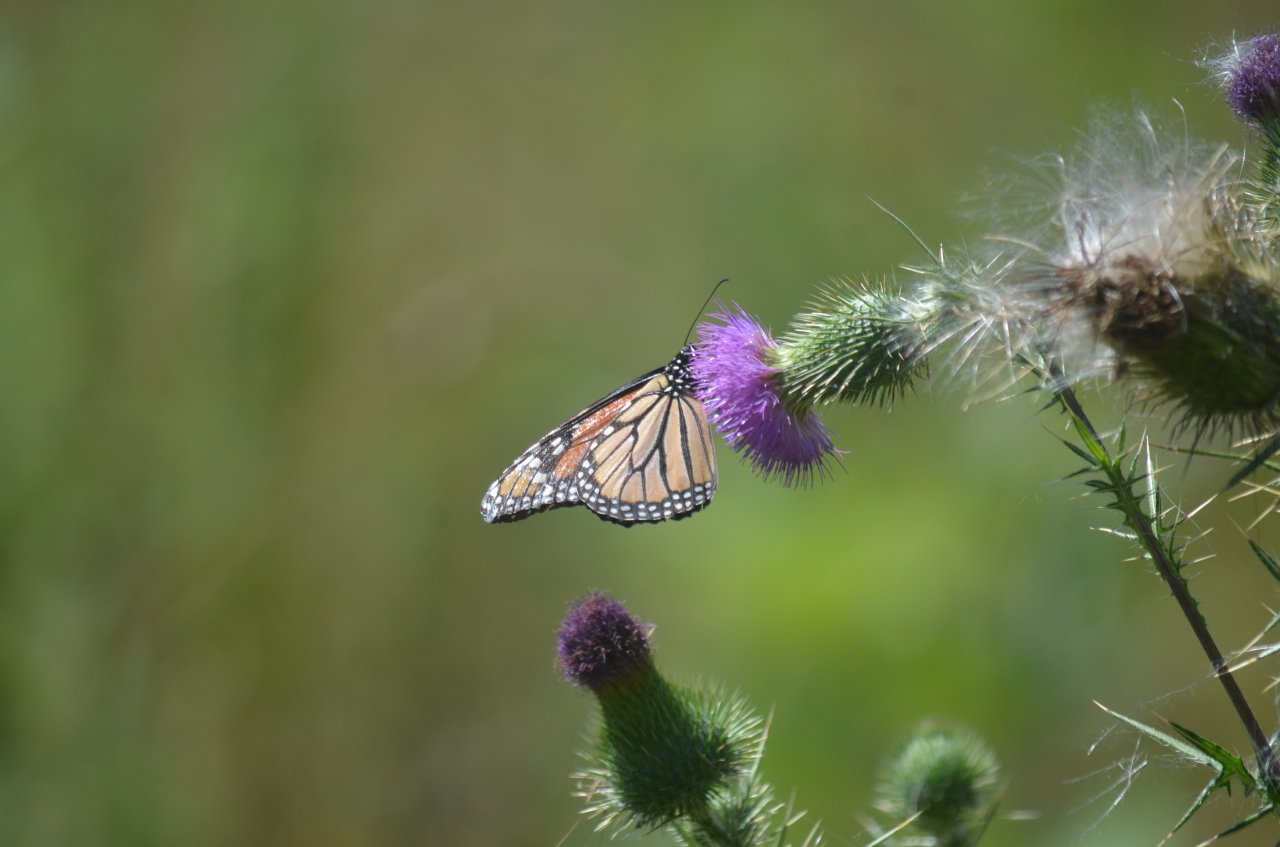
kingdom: Animalia
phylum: Arthropoda
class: Insecta
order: Lepidoptera
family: Nymphalidae
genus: Danaus
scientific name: Danaus plexippus
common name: Monarch
